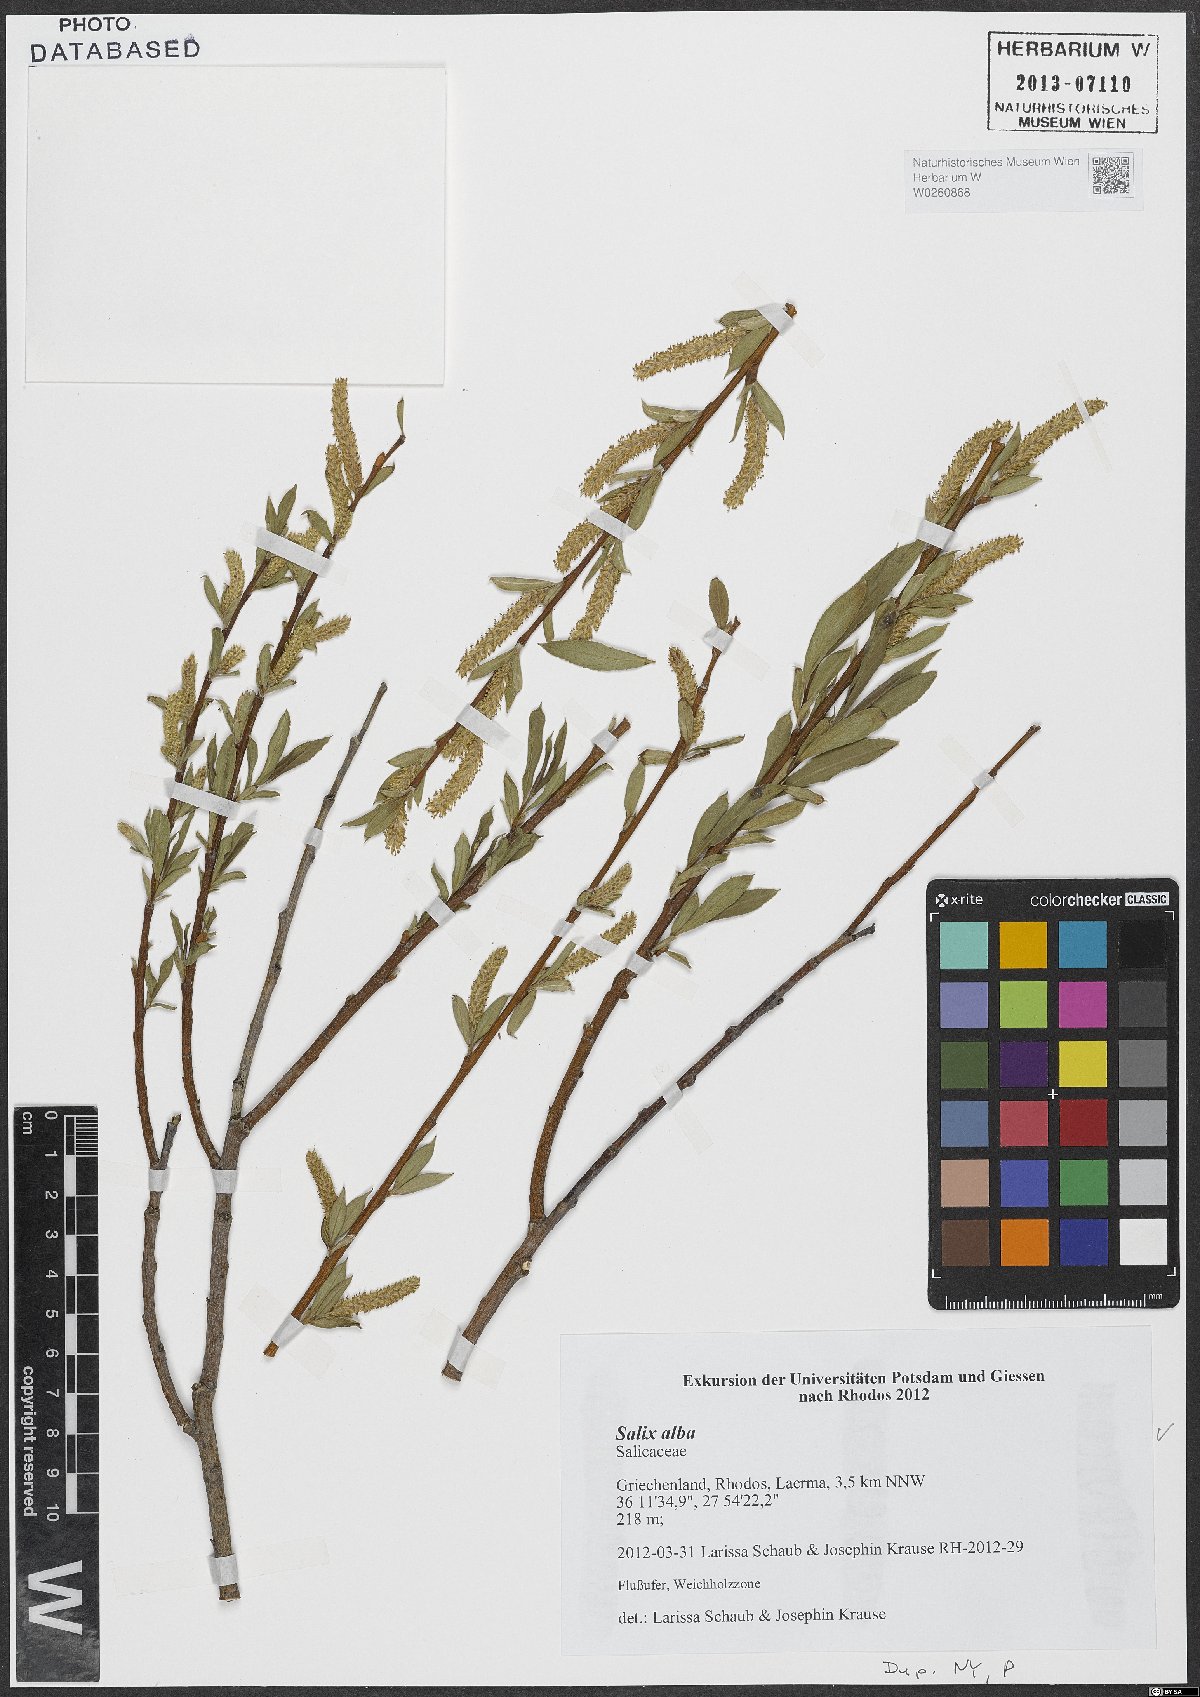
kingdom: Plantae
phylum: Tracheophyta
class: Magnoliopsida
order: Malpighiales
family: Salicaceae
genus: Salix
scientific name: Salix alba
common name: White willow
